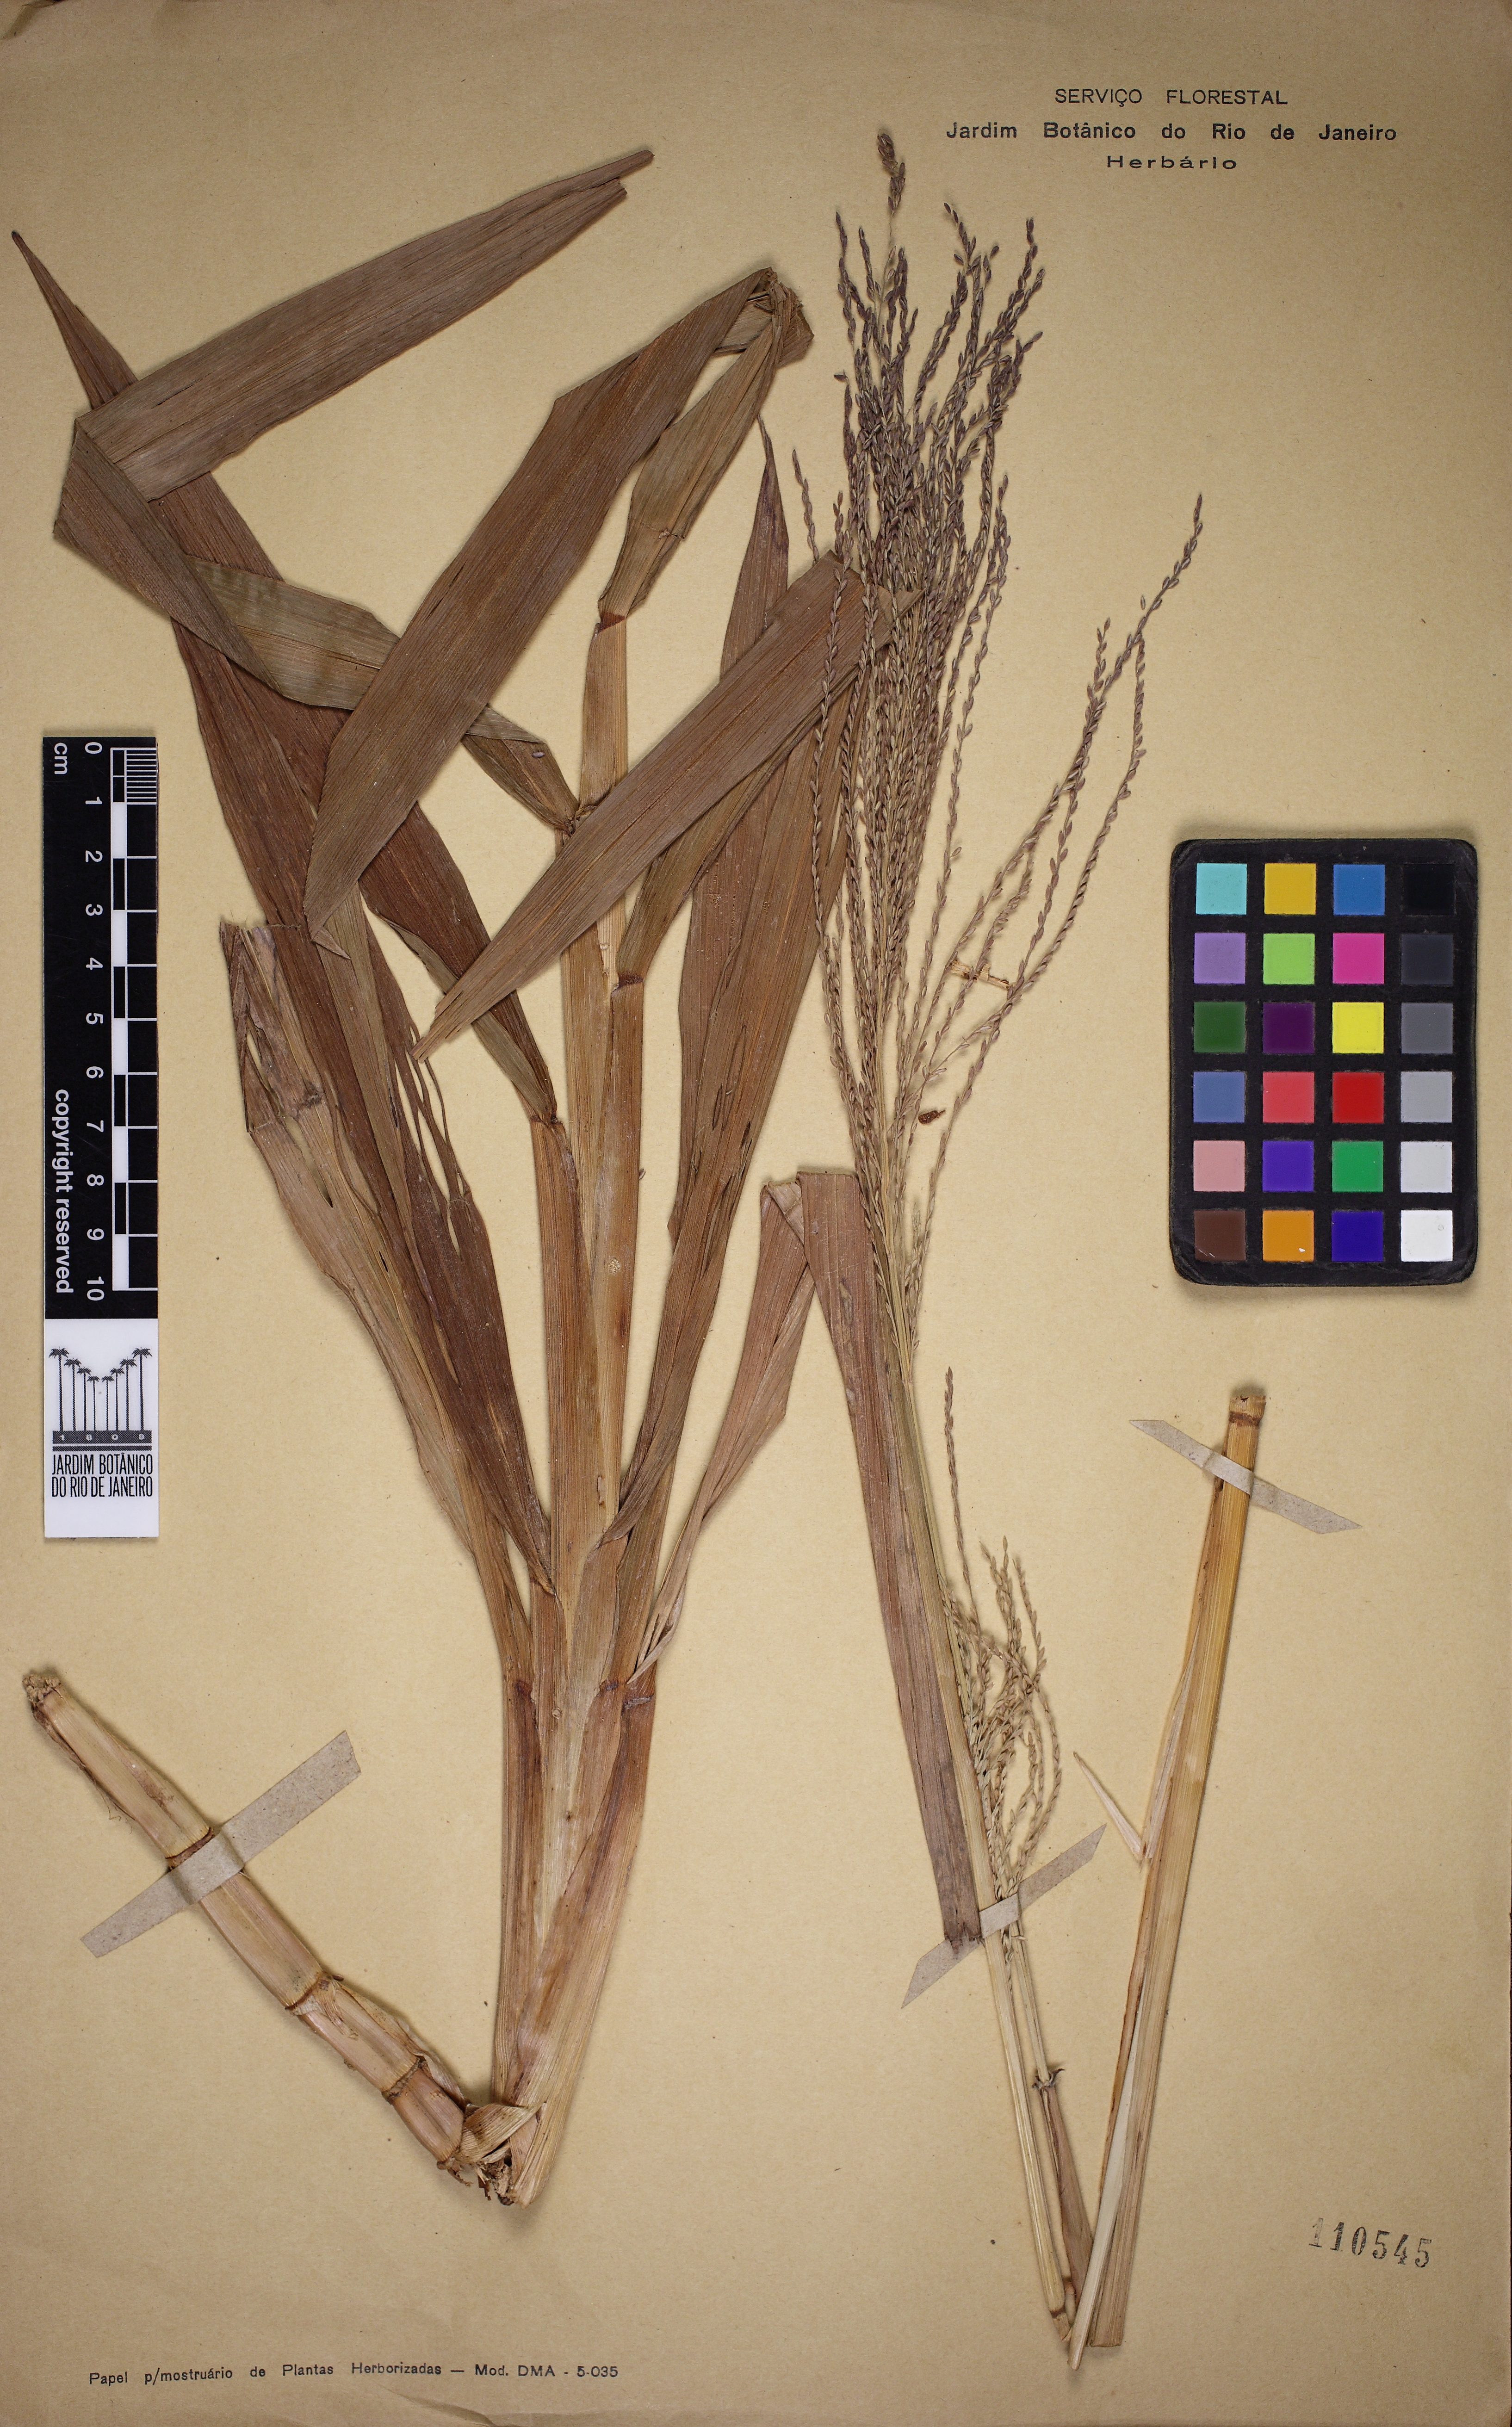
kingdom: Plantae
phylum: Tracheophyta
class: Liliopsida
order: Poales
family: Poaceae
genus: Axonopus
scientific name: Axonopus scoparius
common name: Imperial grass
